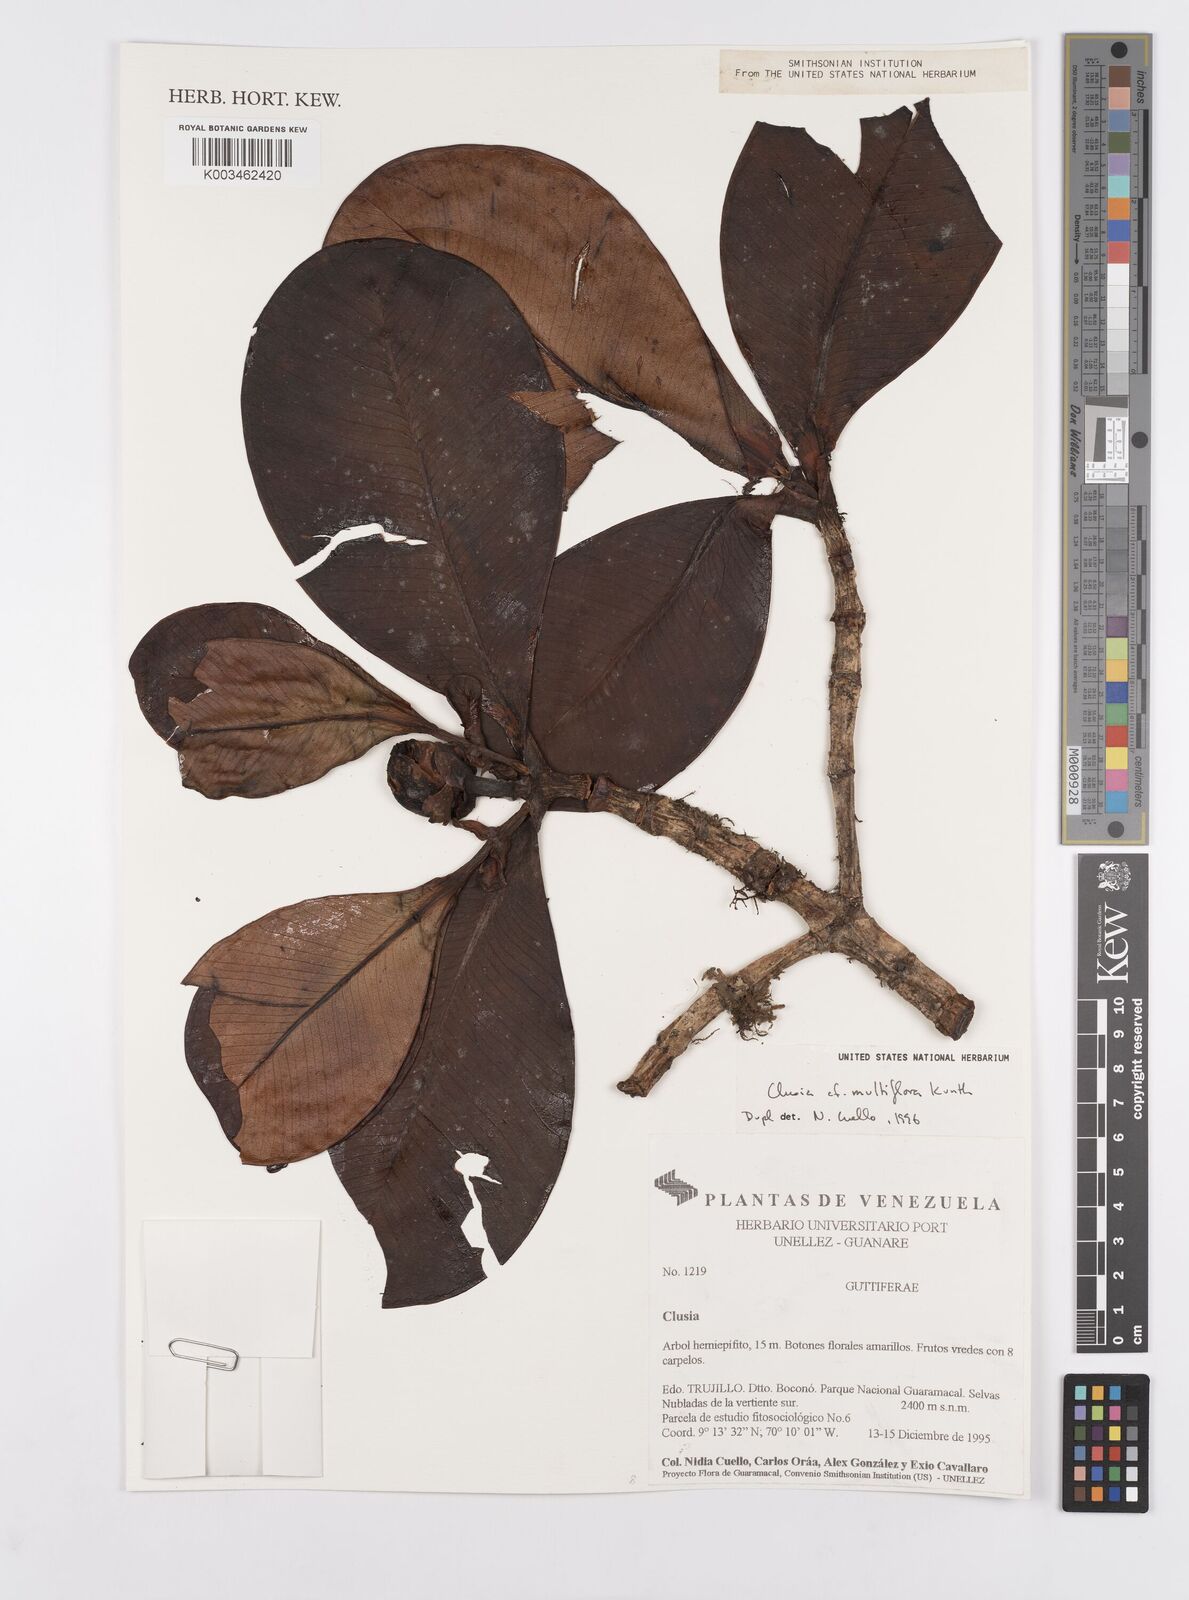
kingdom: Plantae
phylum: Tracheophyta
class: Magnoliopsida
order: Malpighiales
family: Clusiaceae
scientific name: Clusiaceae
